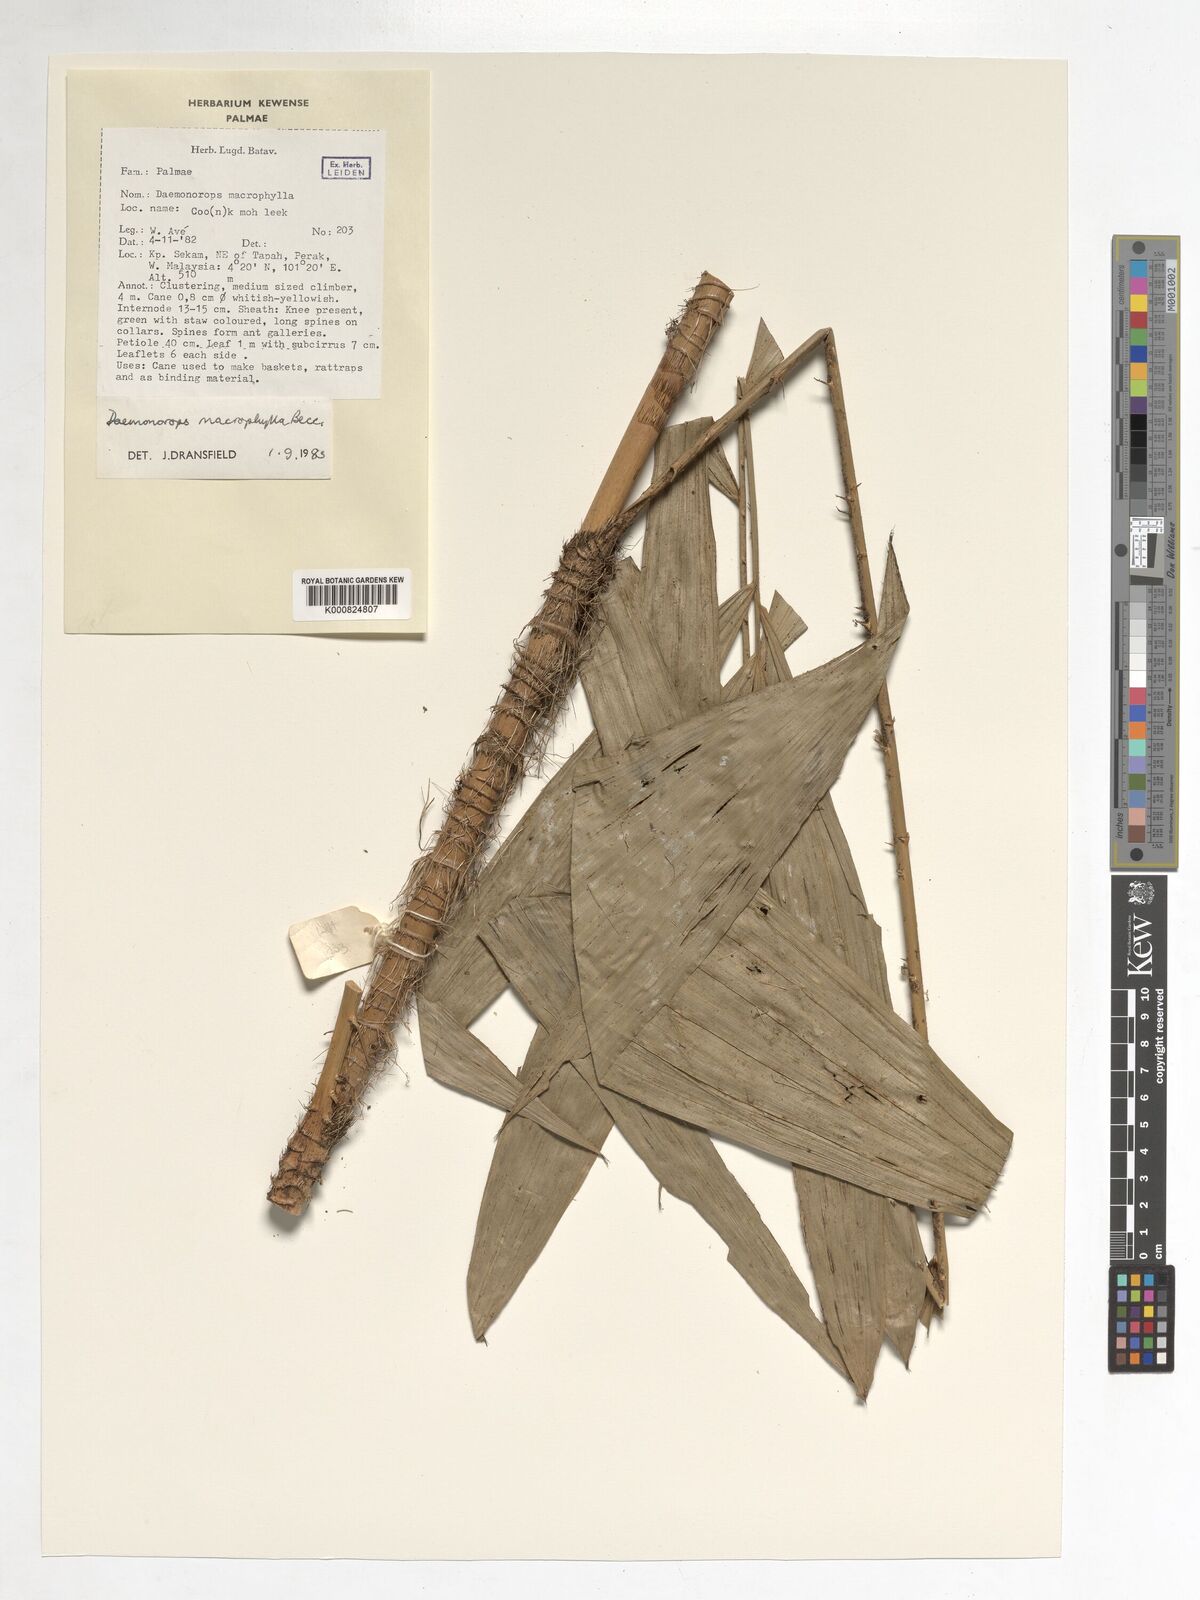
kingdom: Plantae
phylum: Tracheophyta
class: Liliopsida
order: Arecales
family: Arecaceae
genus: Calamus
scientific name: Calamus crinitus
